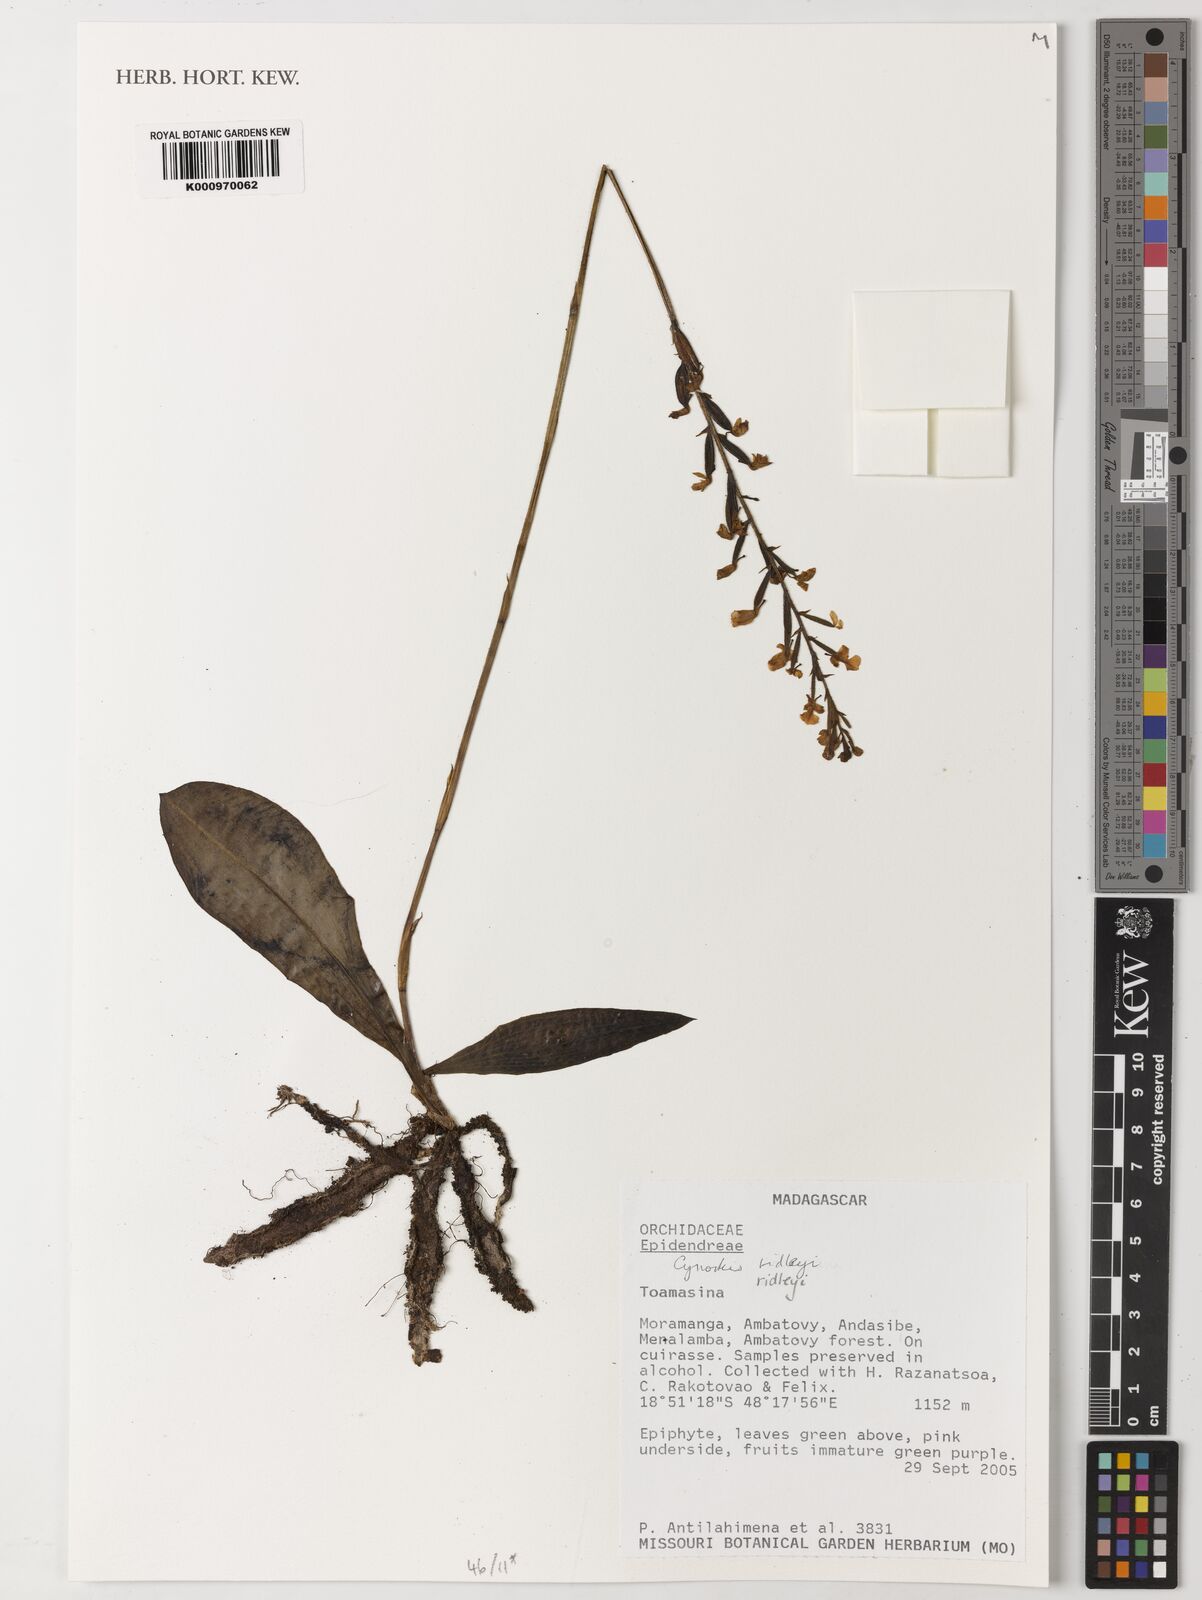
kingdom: Plantae
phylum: Tracheophyta
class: Liliopsida
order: Asparagales
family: Orchidaceae
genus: Cynorkis
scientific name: Cynorkis ridleyi
